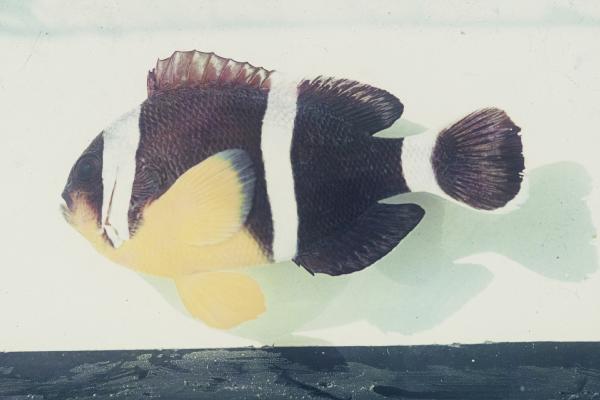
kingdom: Animalia
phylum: Chordata
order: Perciformes
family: Pomacentridae
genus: Amphiprion
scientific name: Amphiprion chrysogaster
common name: Mauritian anemonefish
